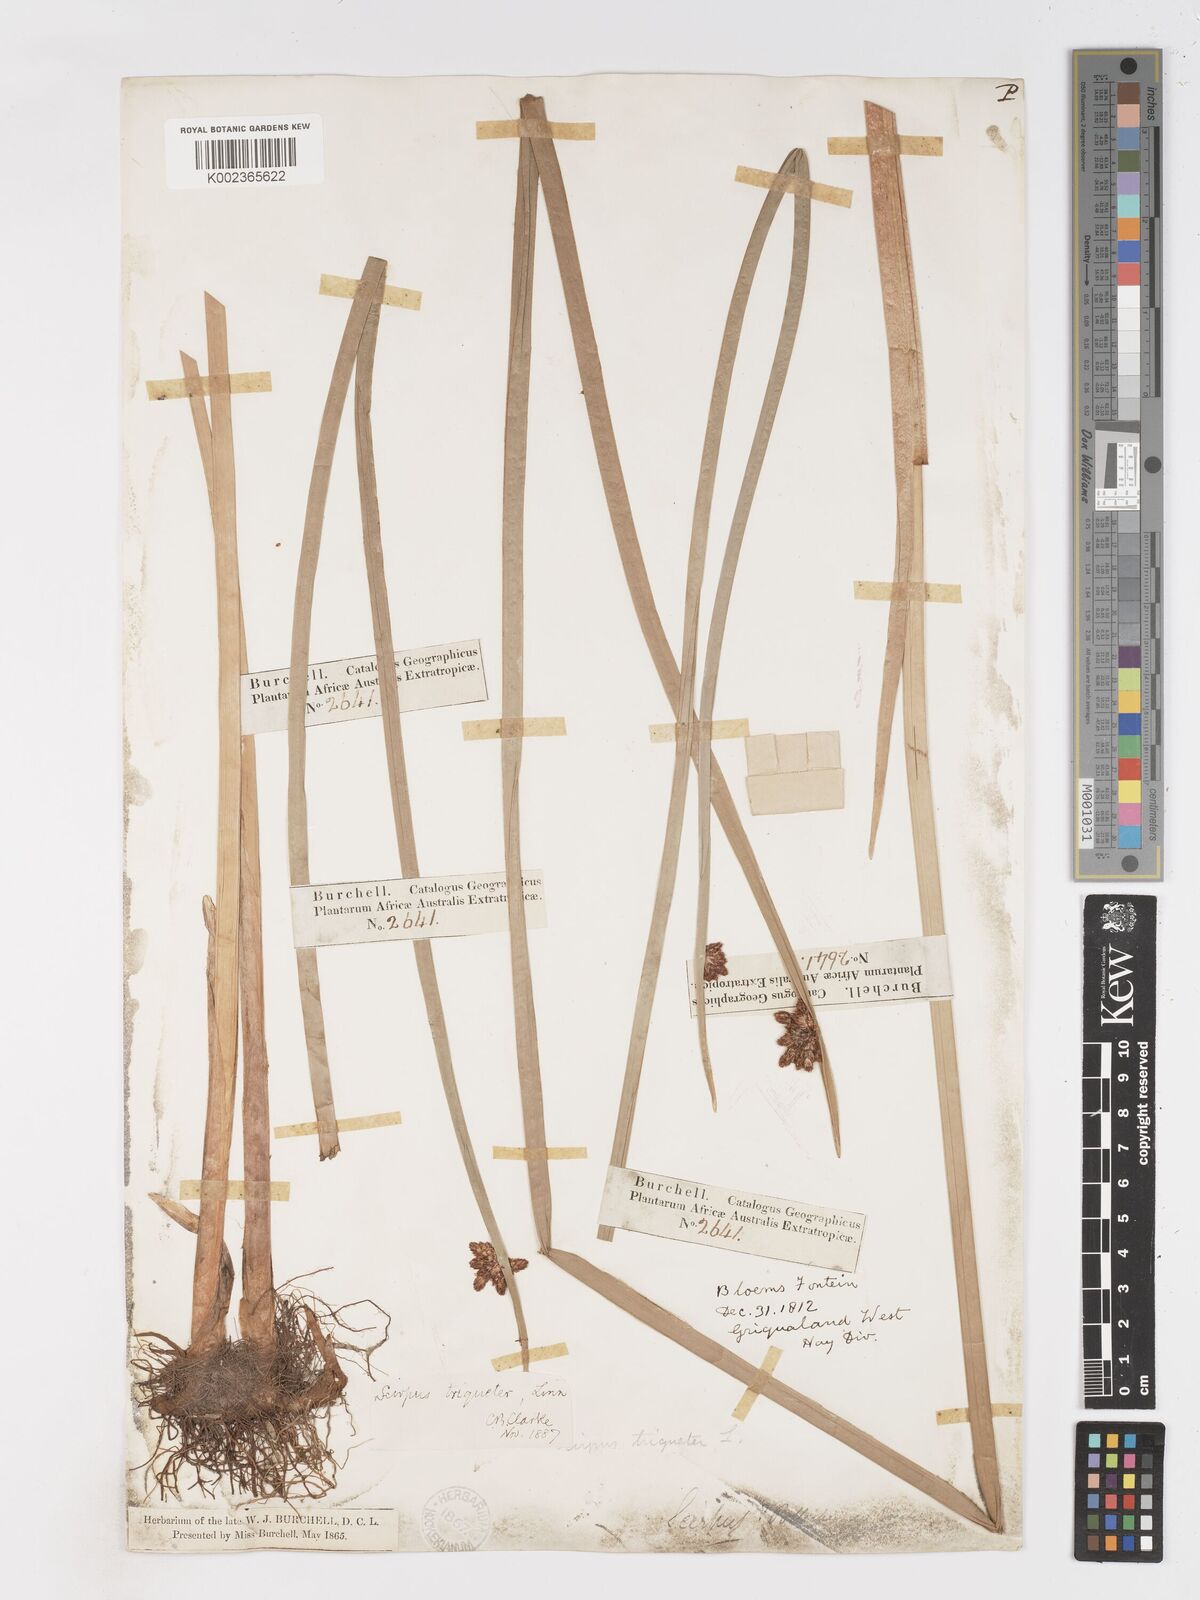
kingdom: Plantae
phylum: Tracheophyta
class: Liliopsida
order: Poales
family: Cyperaceae
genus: Schoenoplectus
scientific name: Schoenoplectus triqueter
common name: Triangular club-rush
